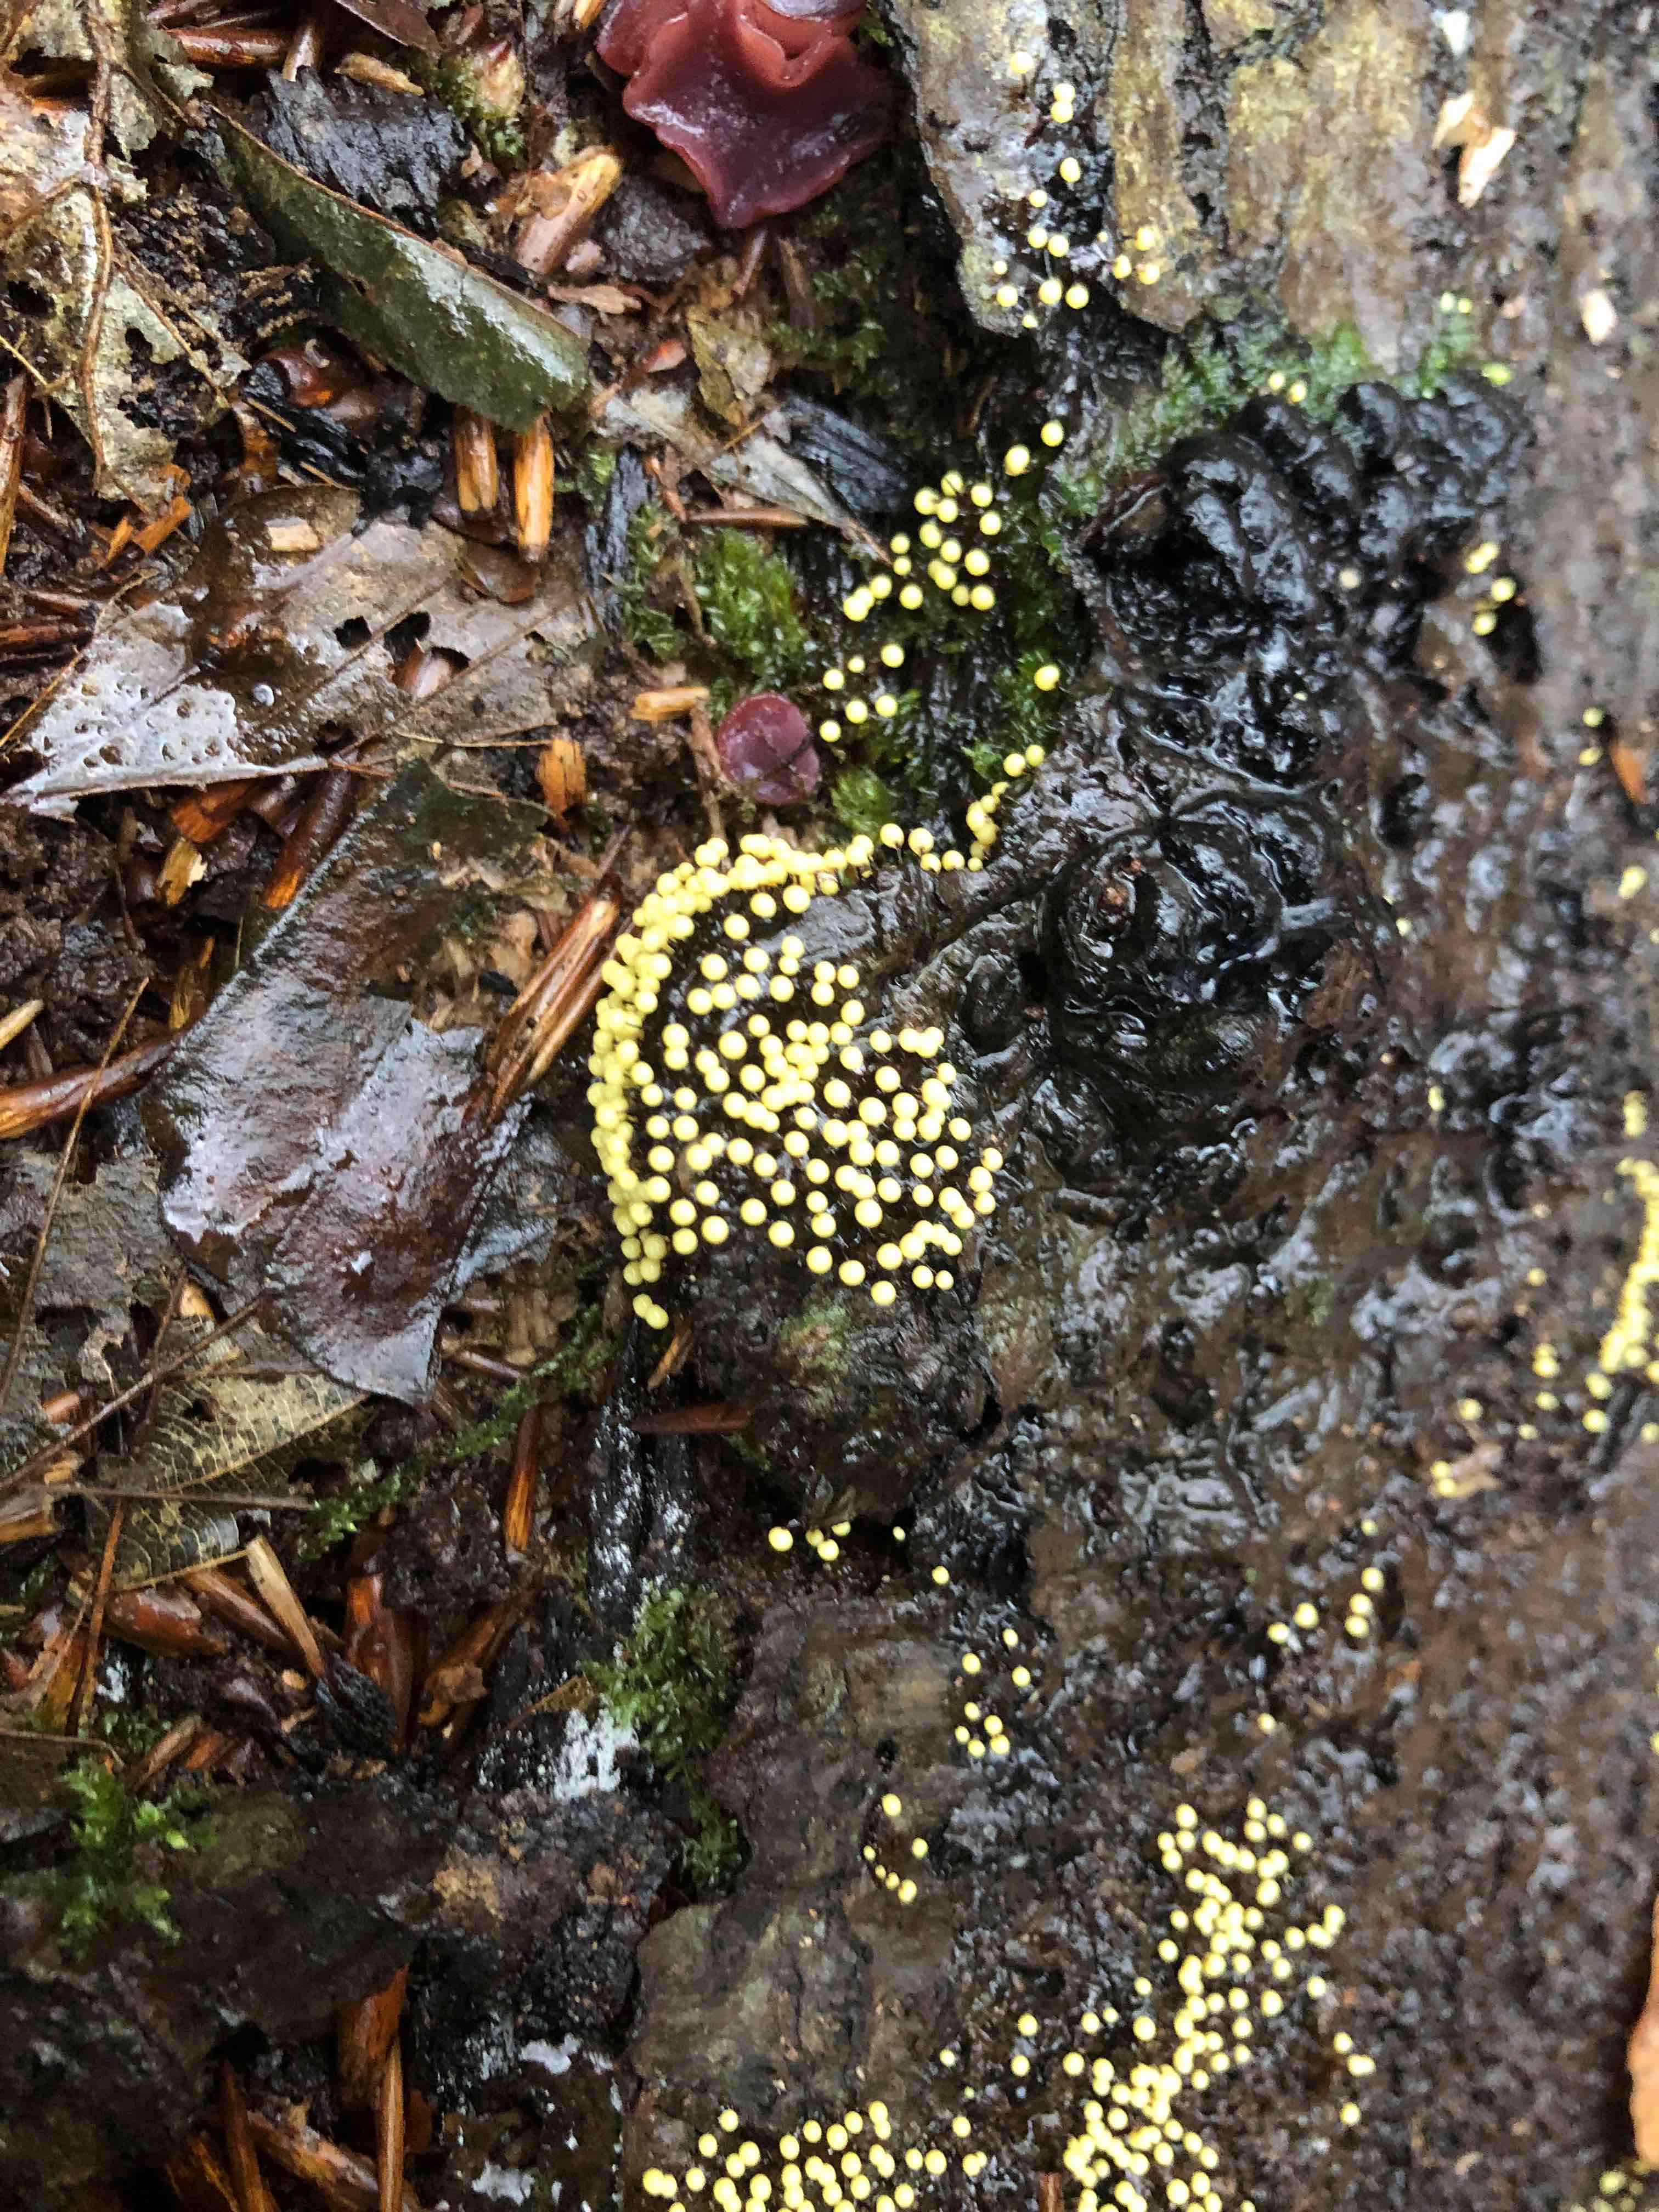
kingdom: Protozoa
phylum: Mycetozoa
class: Myxomycetes
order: Stemonitidales
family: Stemonitidaceae
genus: Lamproderma
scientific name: Lamproderma nigrescens
